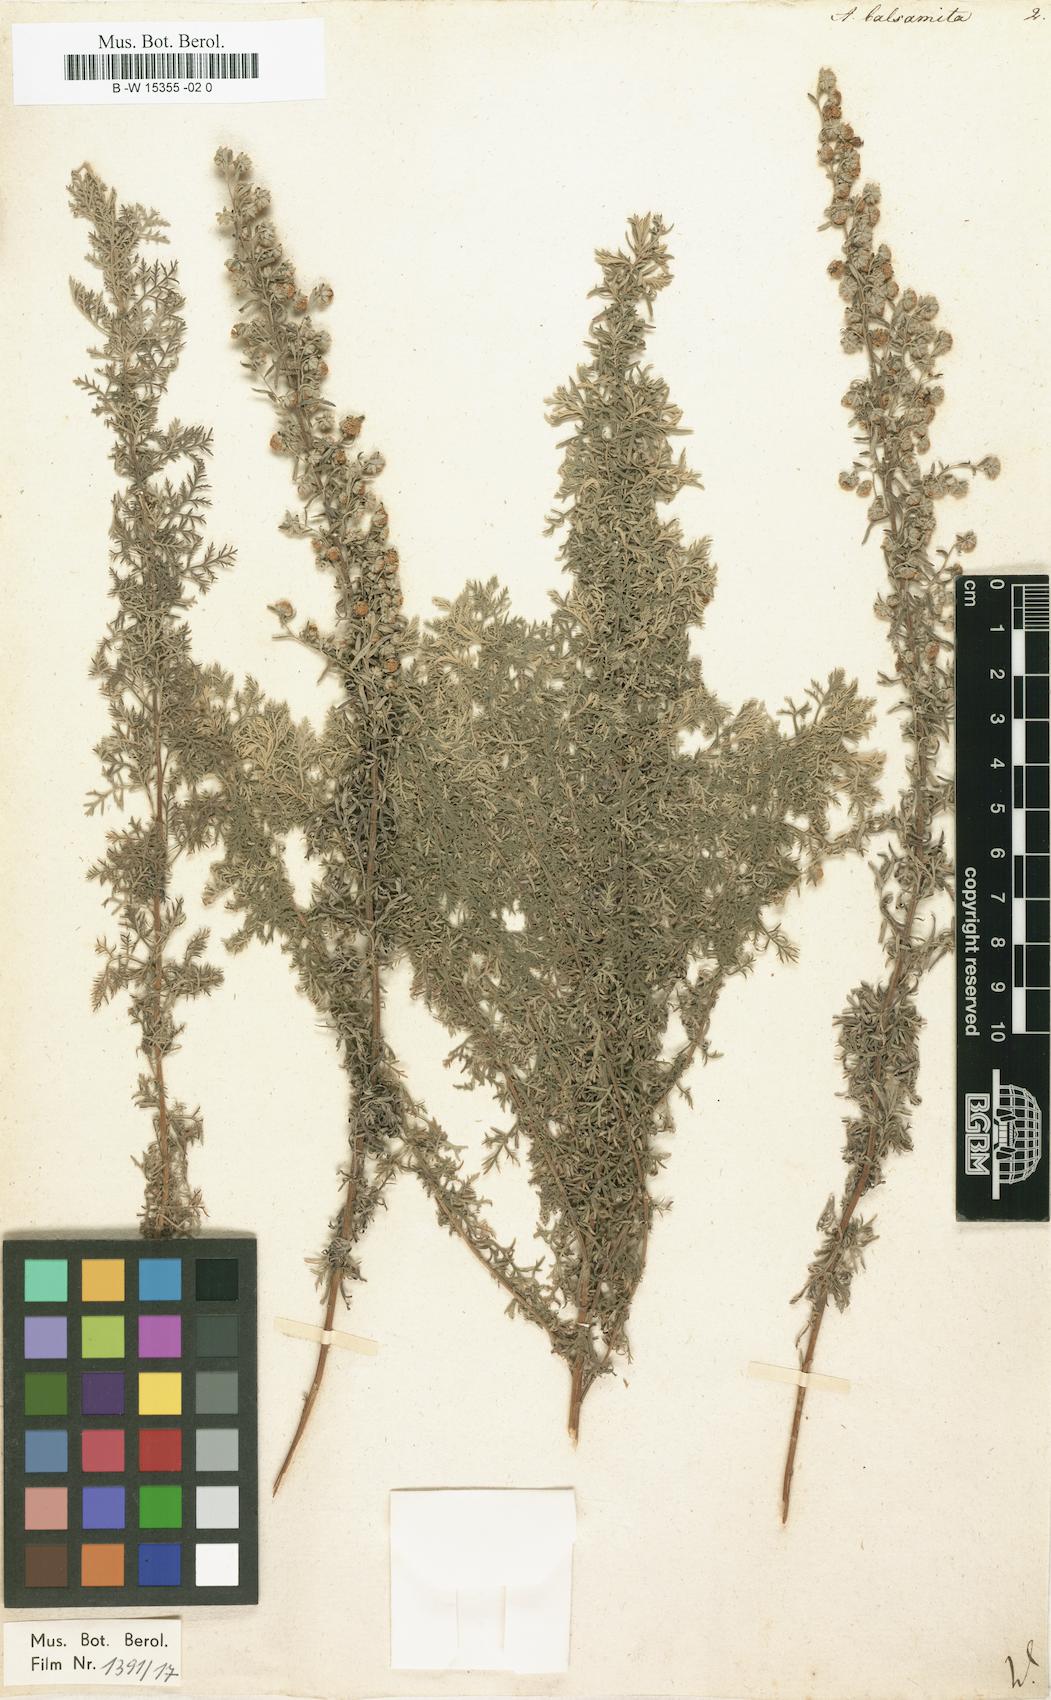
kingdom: Plantae
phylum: Tracheophyta
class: Magnoliopsida
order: Asterales
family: Asteraceae
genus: Artemisia
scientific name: Artemisia pontica
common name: Roman wormwood
